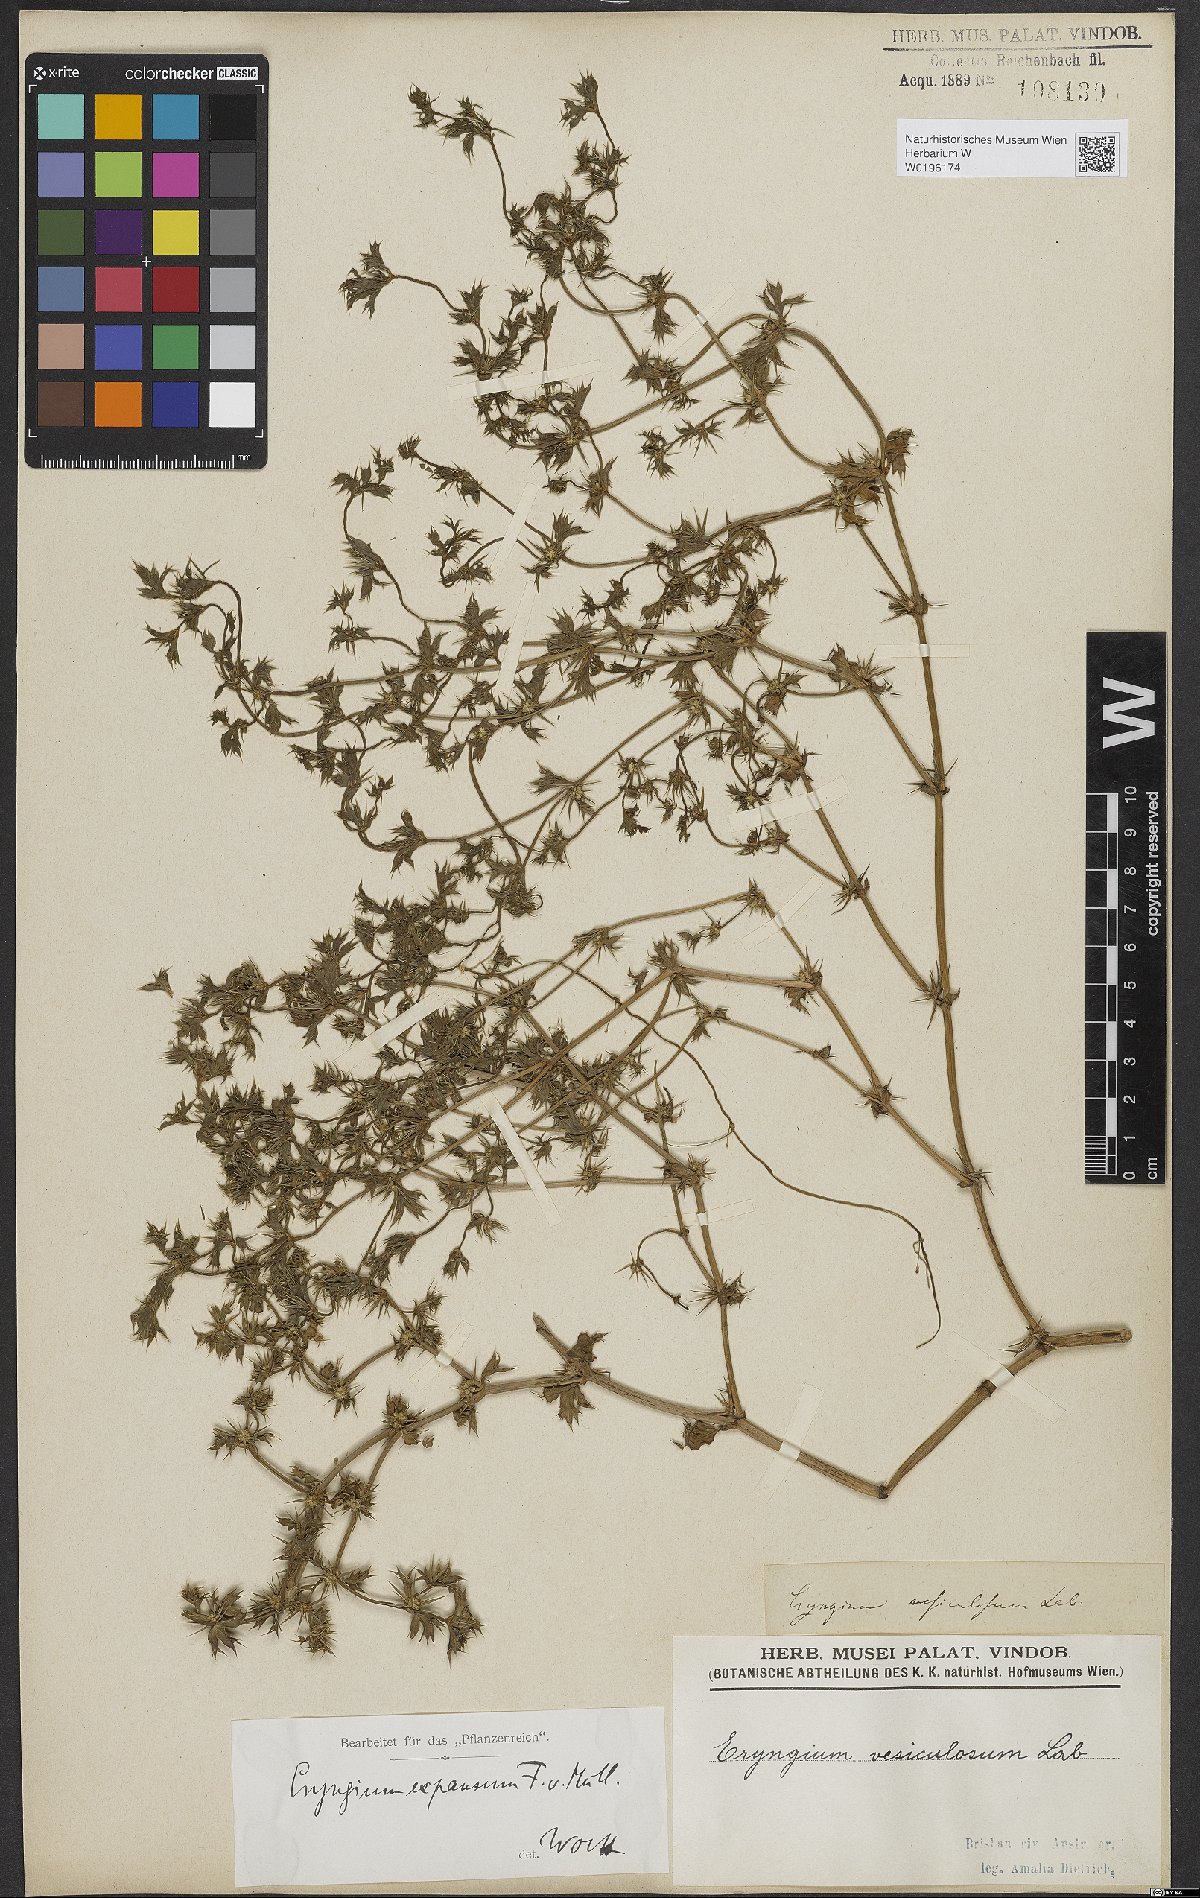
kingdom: Plantae
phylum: Tracheophyta
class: Magnoliopsida
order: Apiales
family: Apiaceae
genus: Eryngium
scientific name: Eryngium expansum
